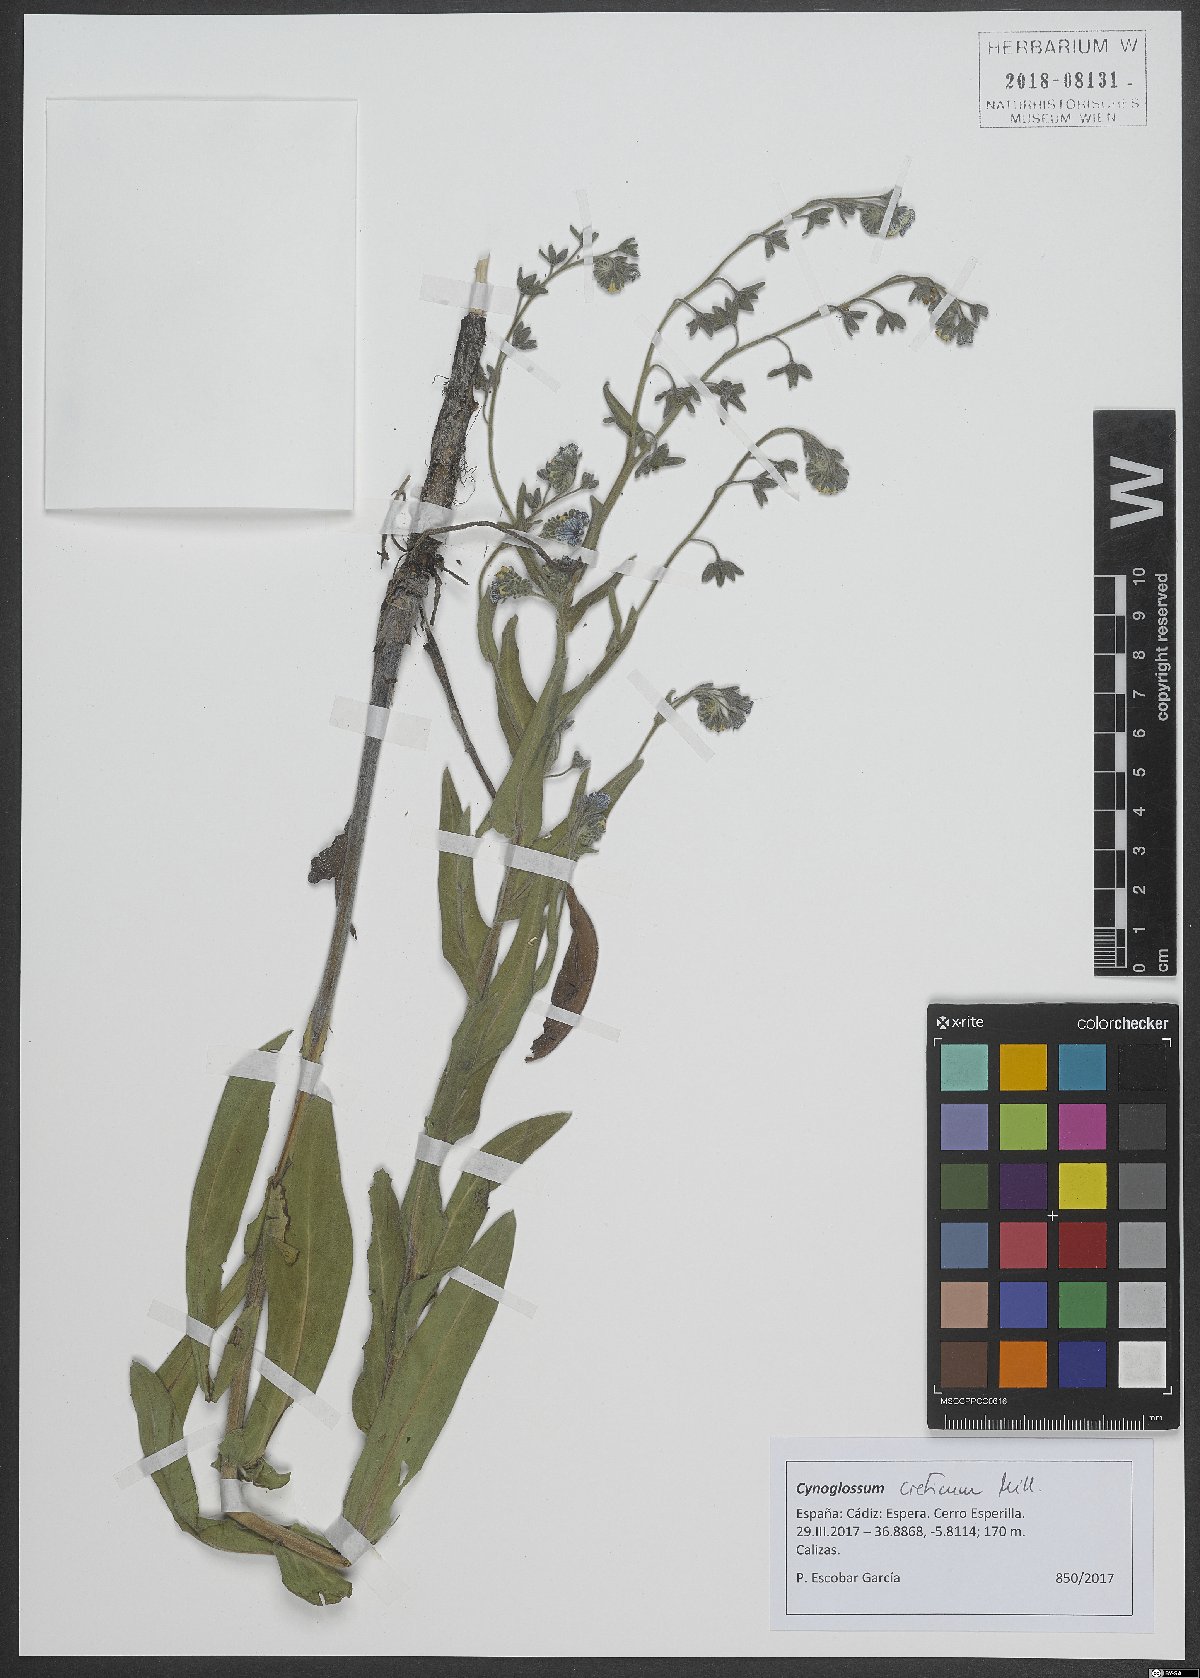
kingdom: Plantae
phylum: Tracheophyta
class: Magnoliopsida
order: Boraginales
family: Boraginaceae
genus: Cynoglossum
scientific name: Cynoglossum creticum
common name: Blue hound's tongue
